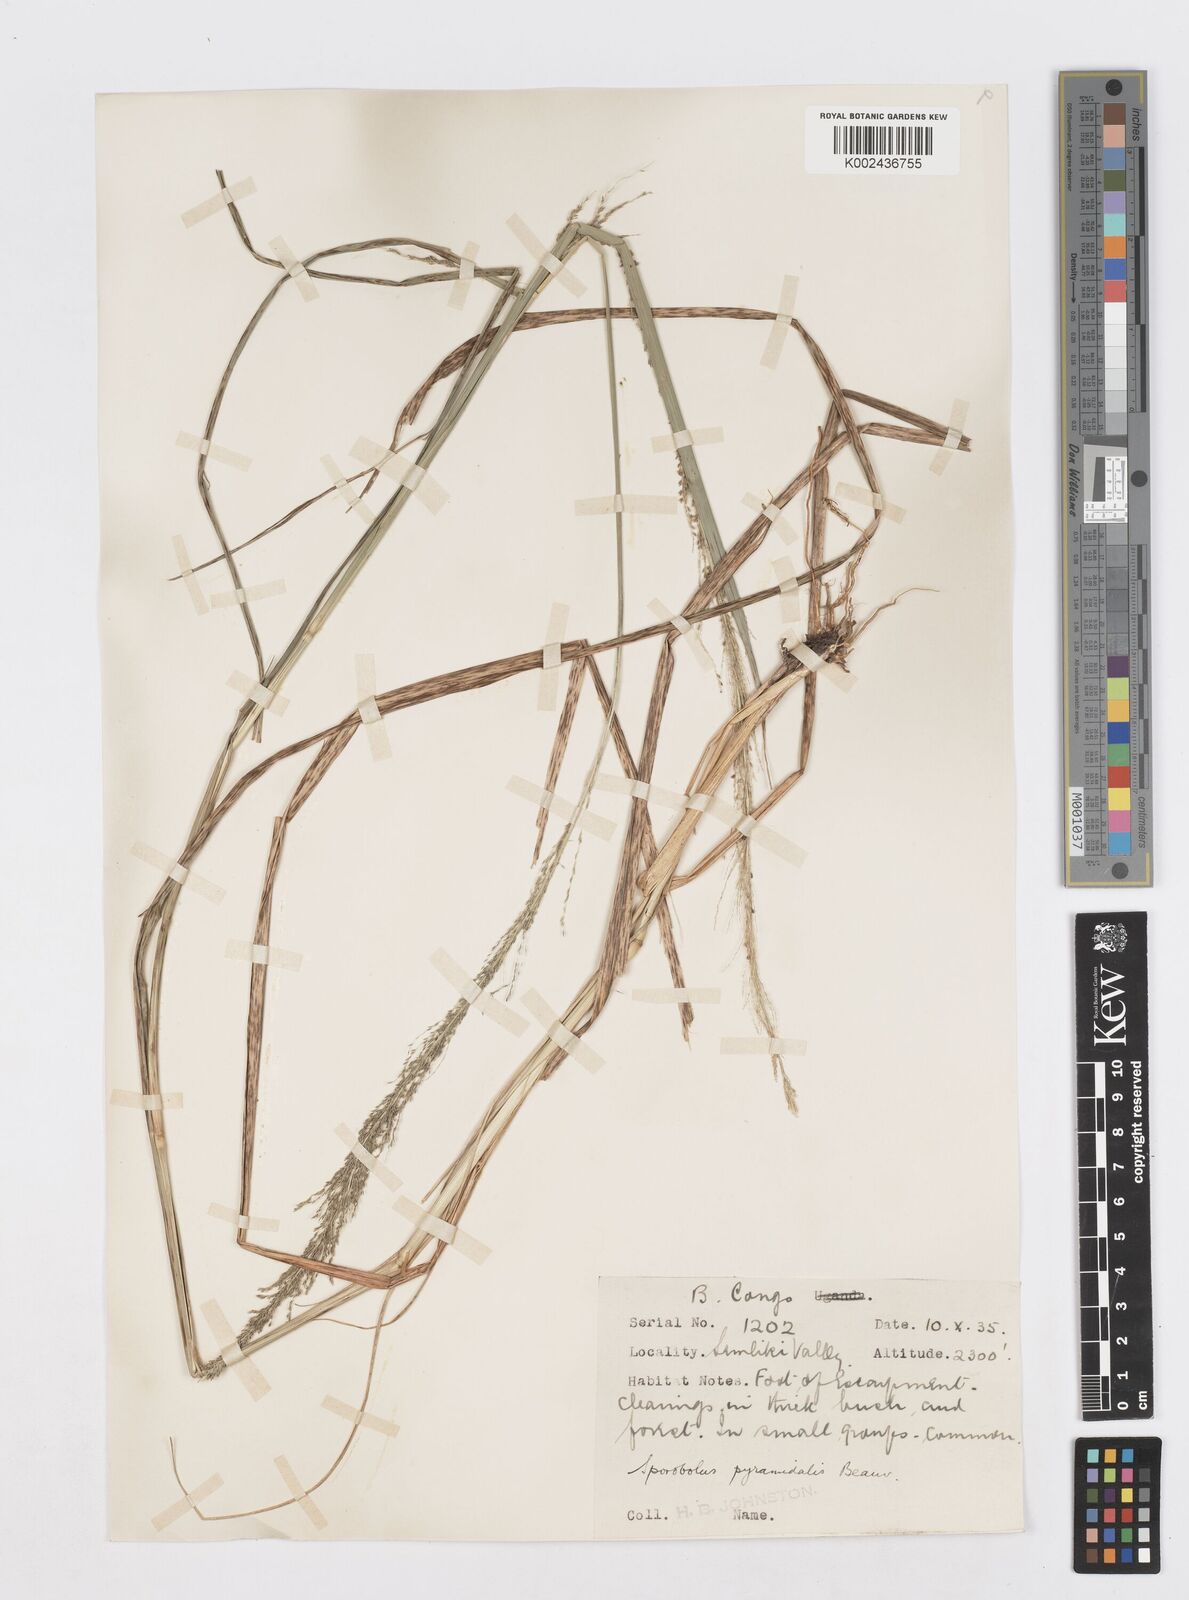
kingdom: Plantae
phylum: Tracheophyta
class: Liliopsida
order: Poales
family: Poaceae
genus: Sporobolus
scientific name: Sporobolus pyramidalis
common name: West indian dropseed
